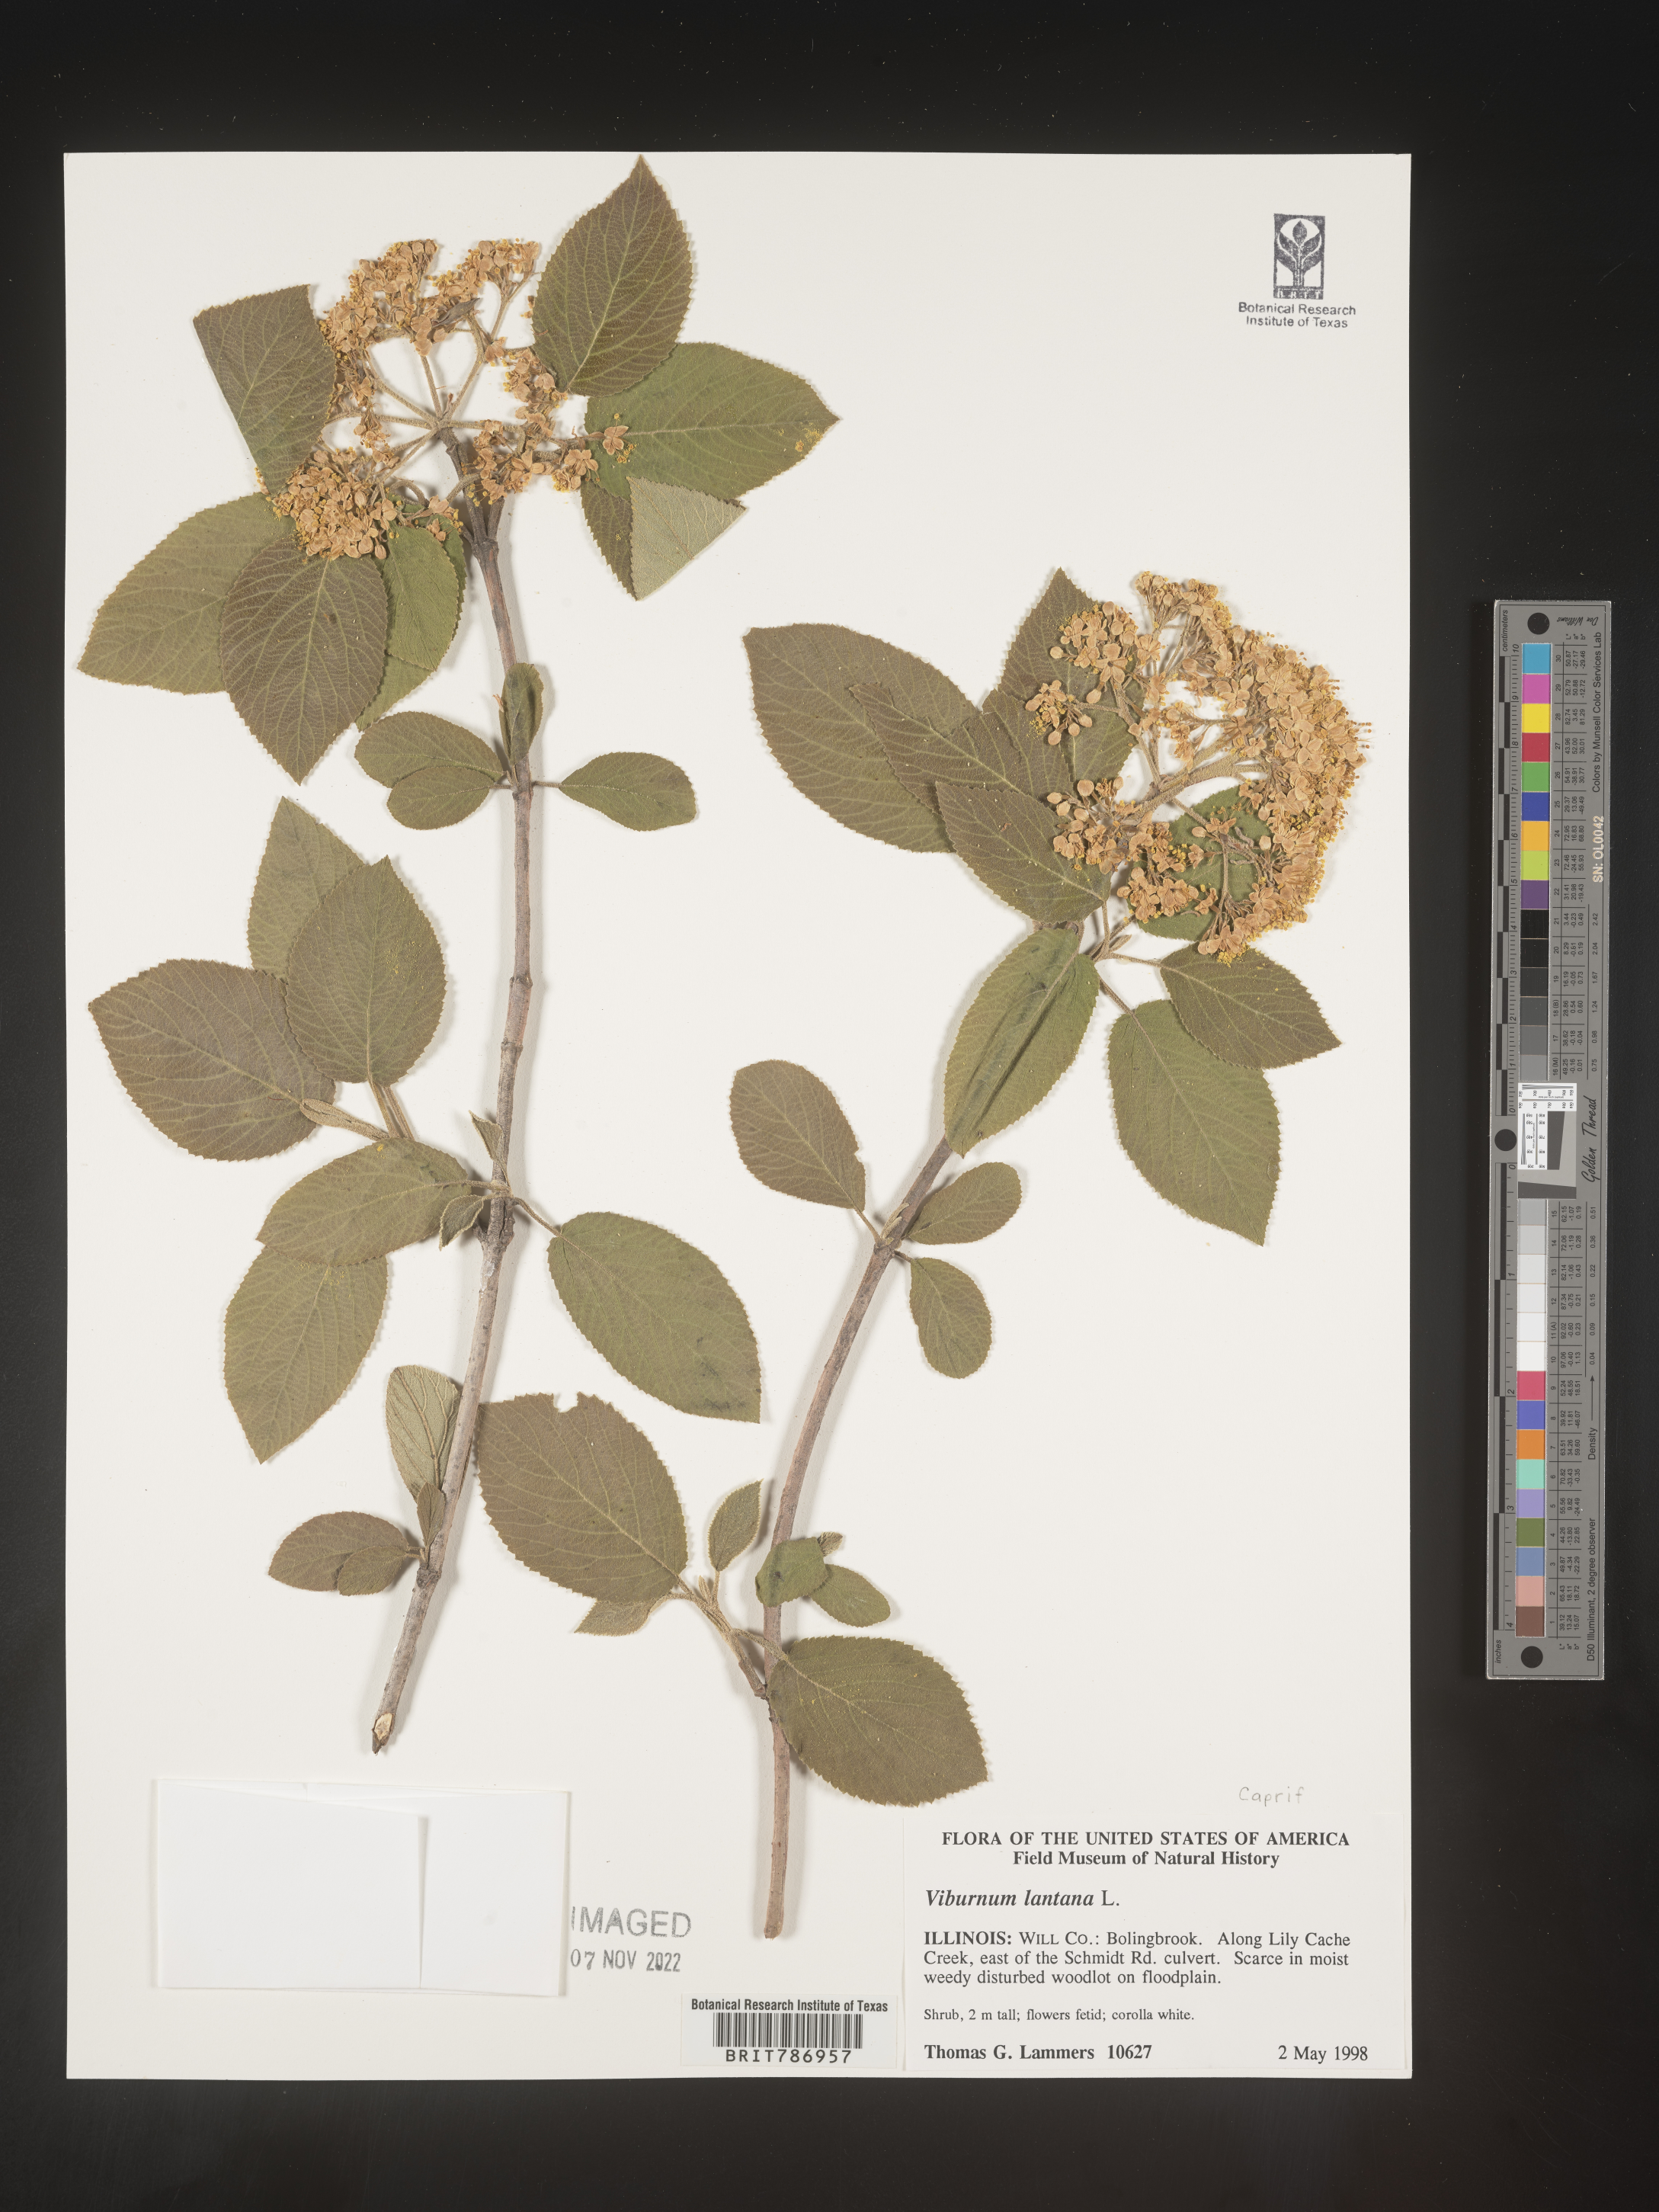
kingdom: Plantae
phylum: Tracheophyta
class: Magnoliopsida
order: Dipsacales
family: Viburnaceae
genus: Viburnum
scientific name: Viburnum lantana
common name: Wayfaring tree
